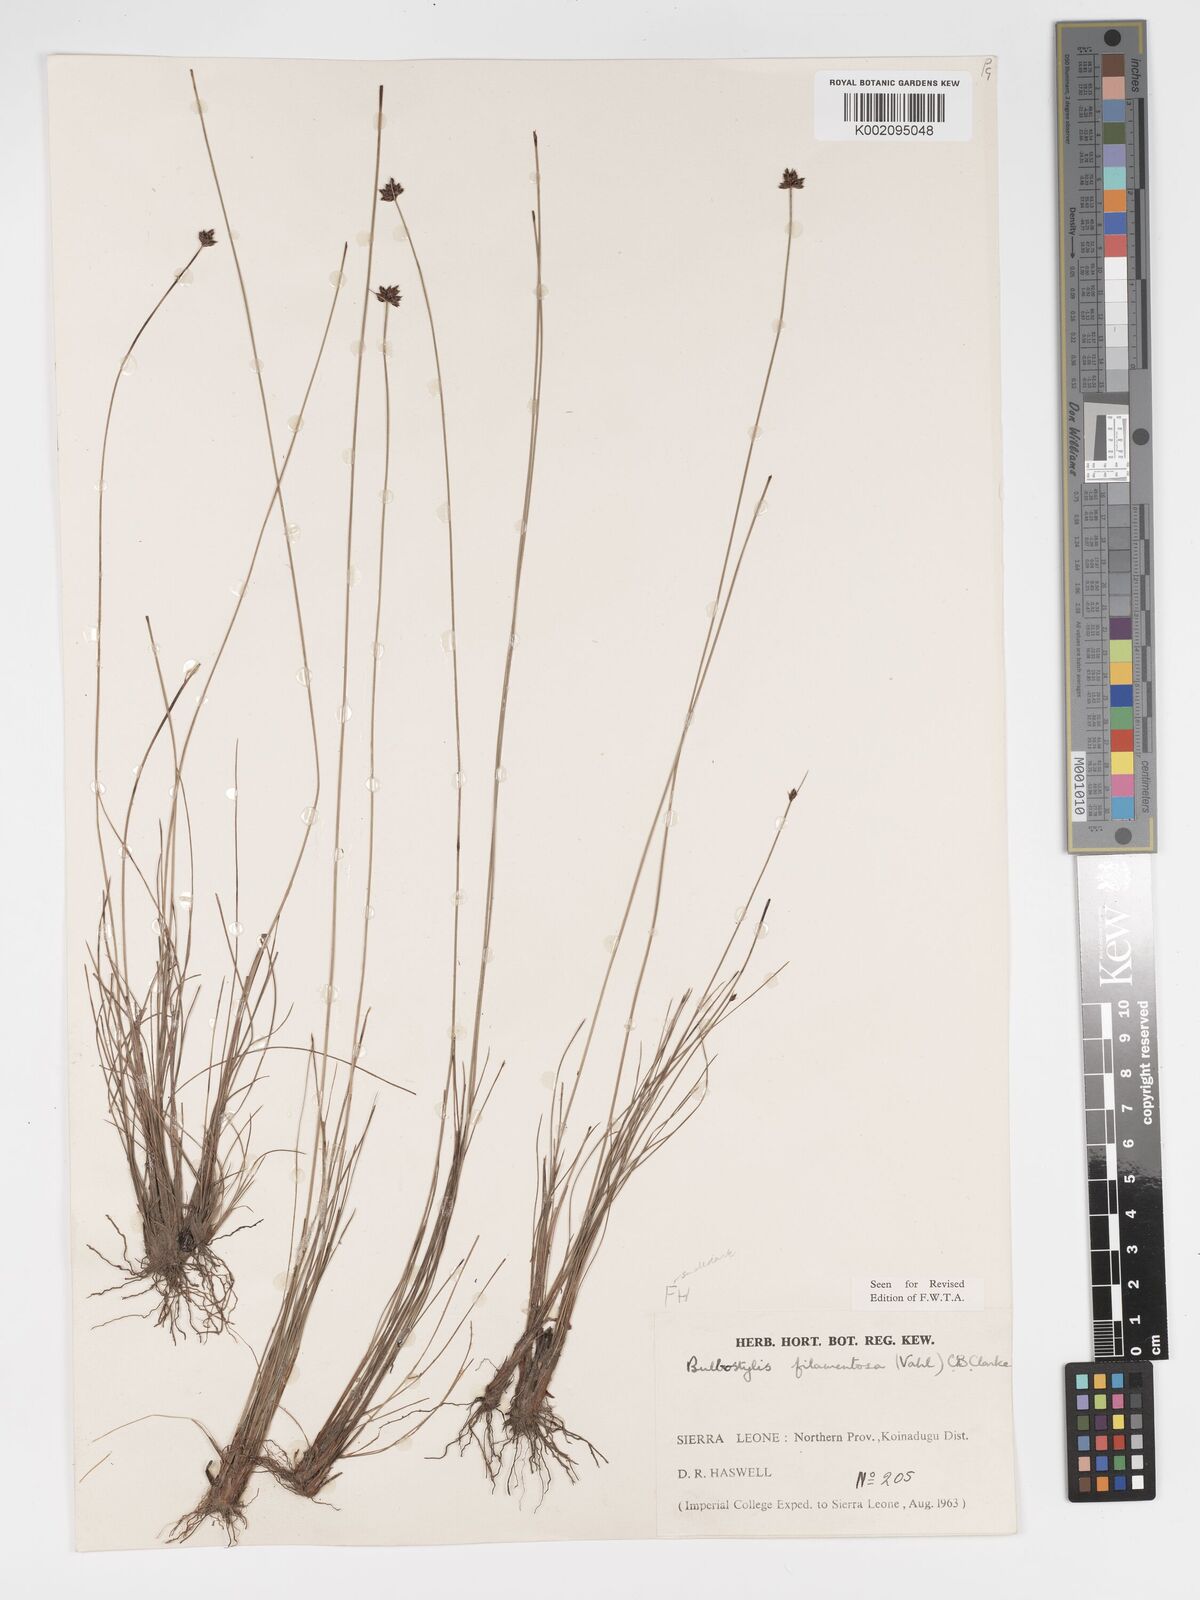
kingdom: Plantae
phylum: Tracheophyta
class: Liliopsida
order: Poales
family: Cyperaceae
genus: Bulbostylis
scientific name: Bulbostylis scabricaulis
